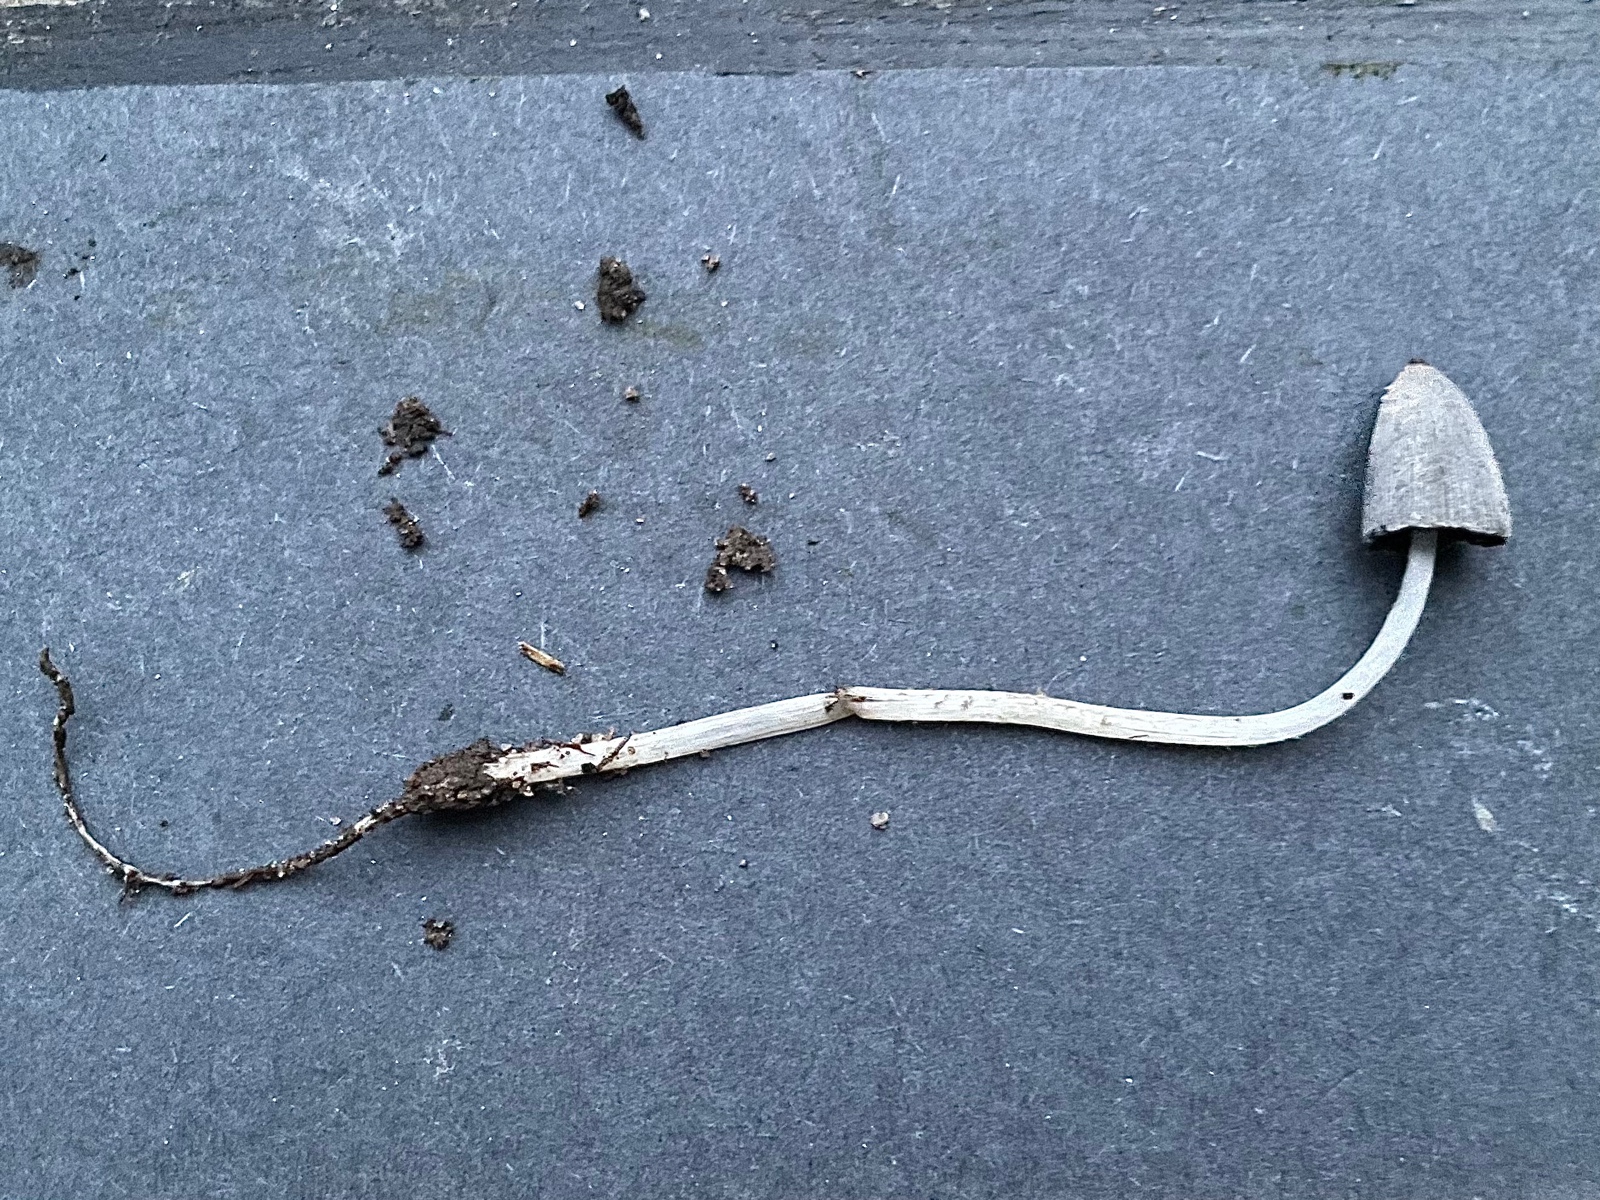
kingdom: Fungi
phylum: Basidiomycota
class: Agaricomycetes
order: Agaricales
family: Psathyrellaceae
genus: Coprinopsis
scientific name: Coprinopsis tuberosa
